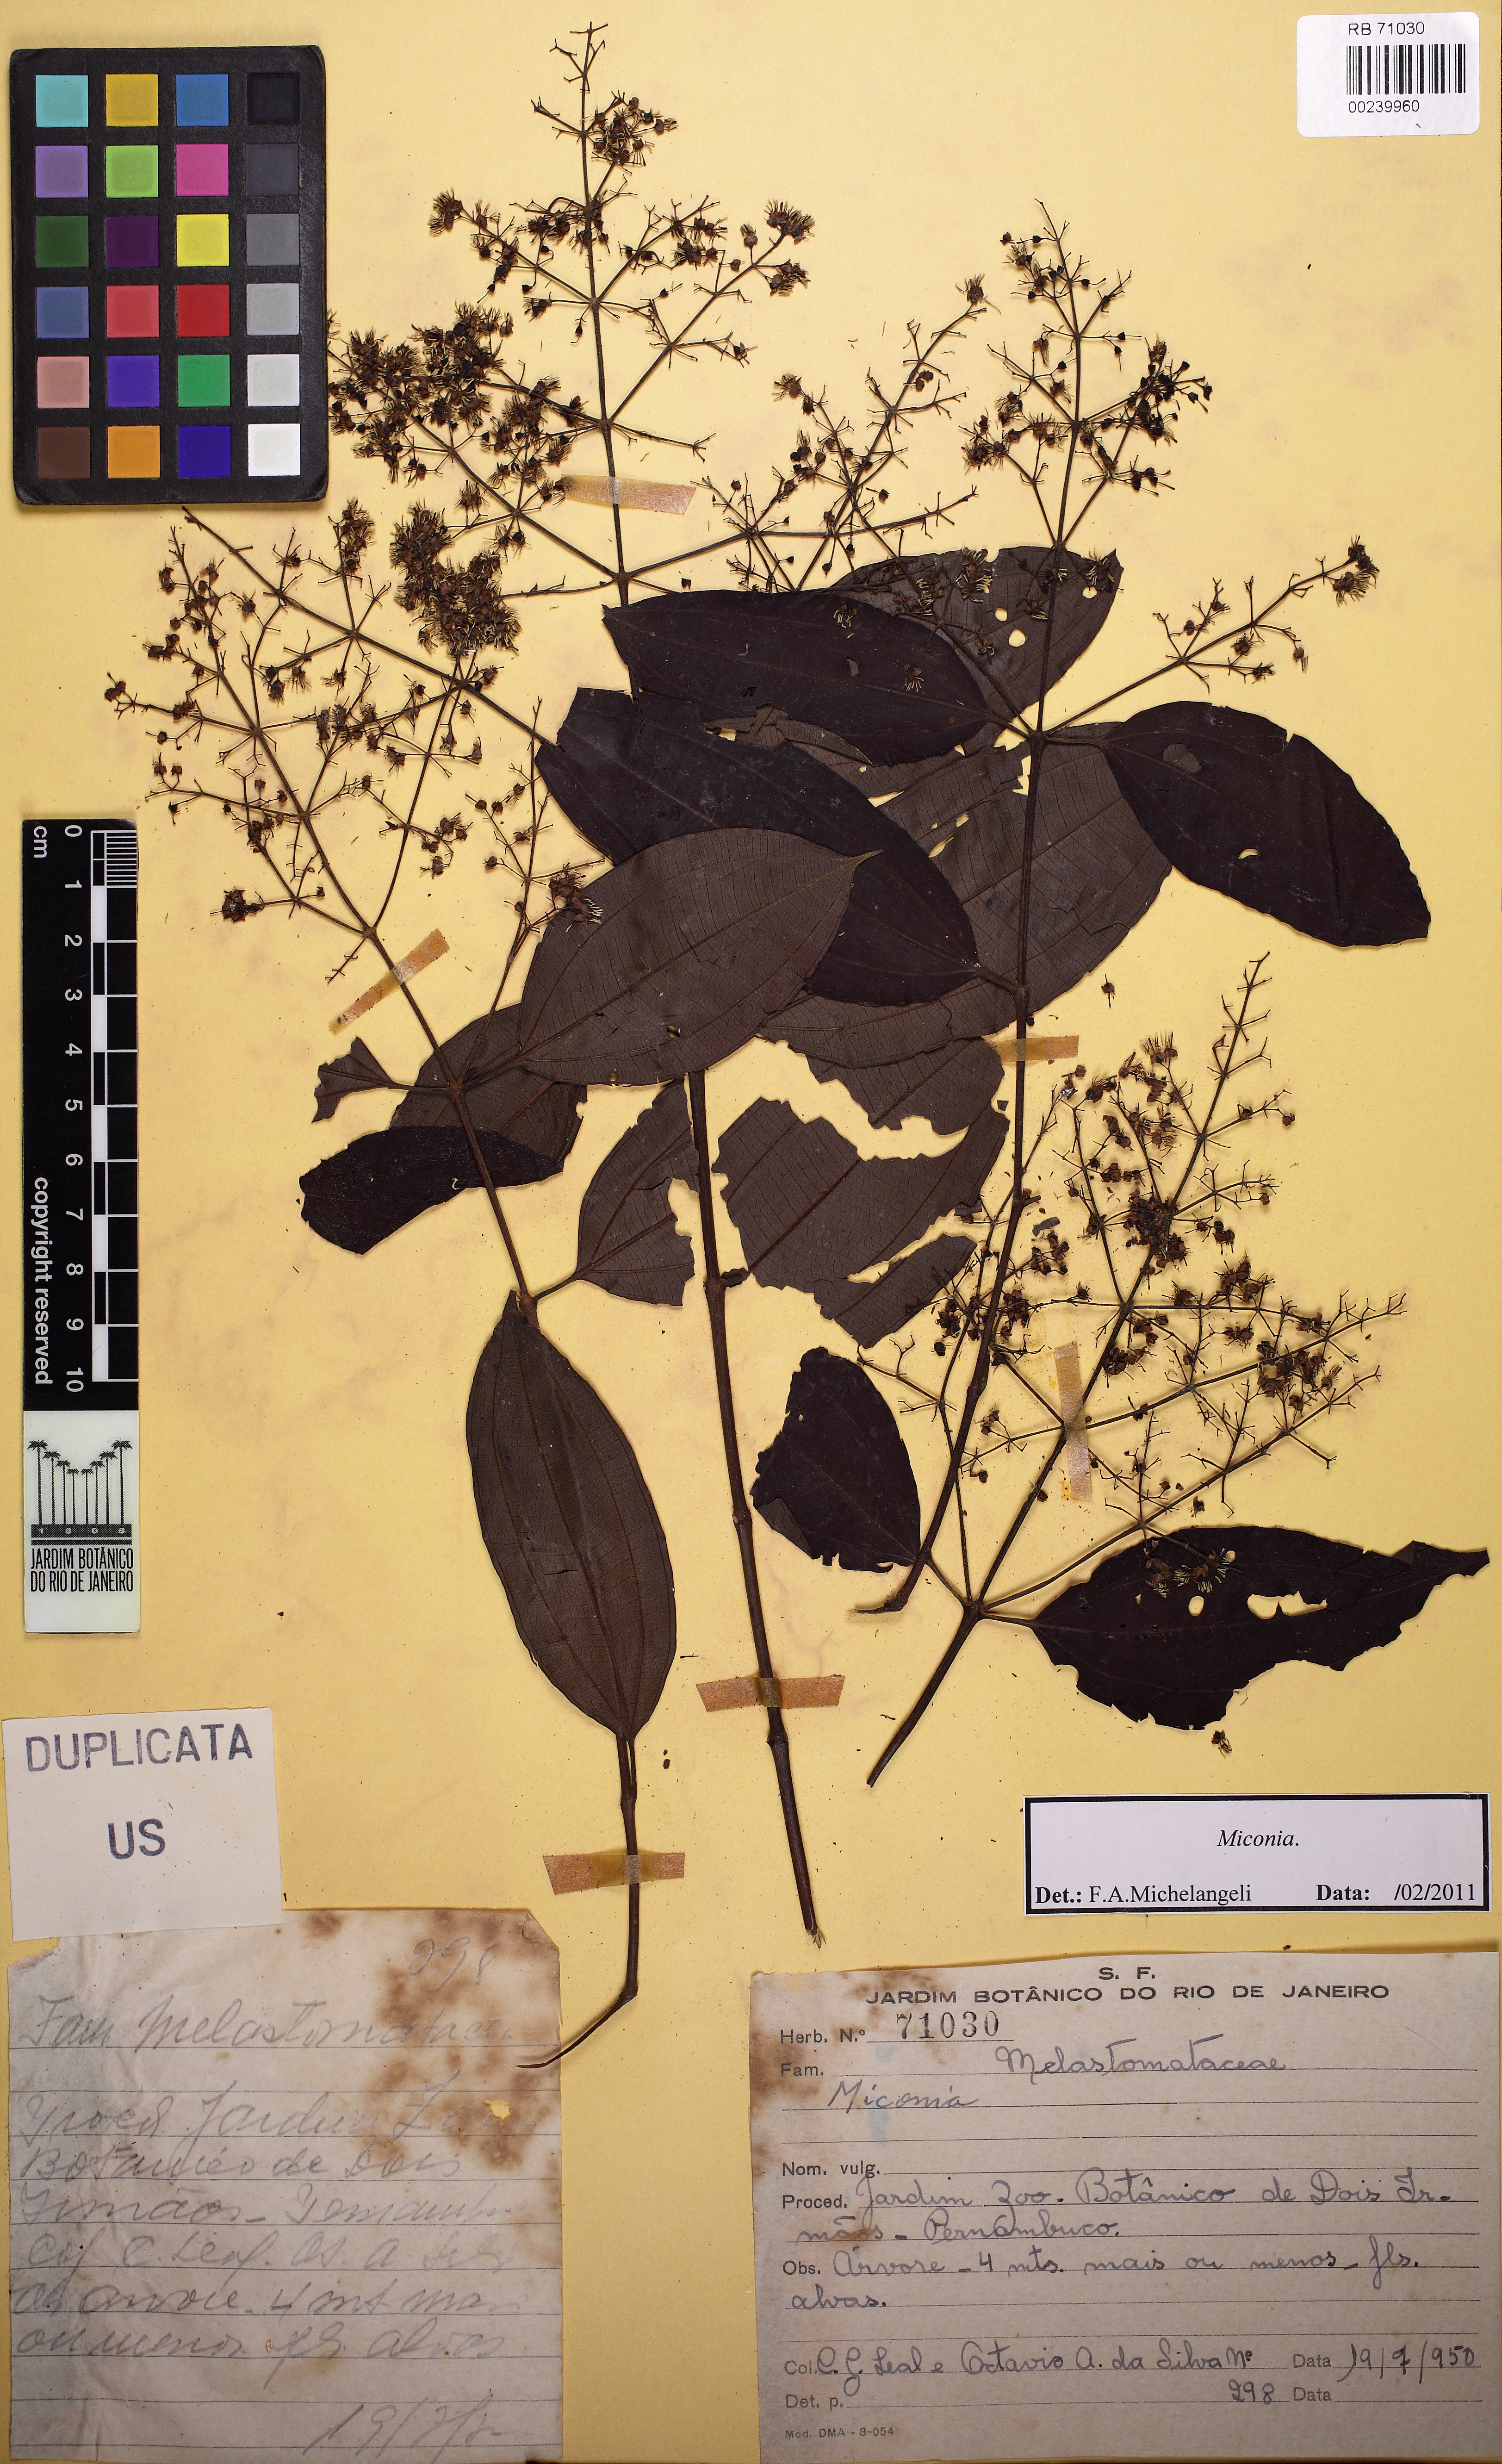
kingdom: Plantae
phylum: Tracheophyta
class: Magnoliopsida
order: Myrtales
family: Melastomataceae
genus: Miconia
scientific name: Miconia minutiflora
